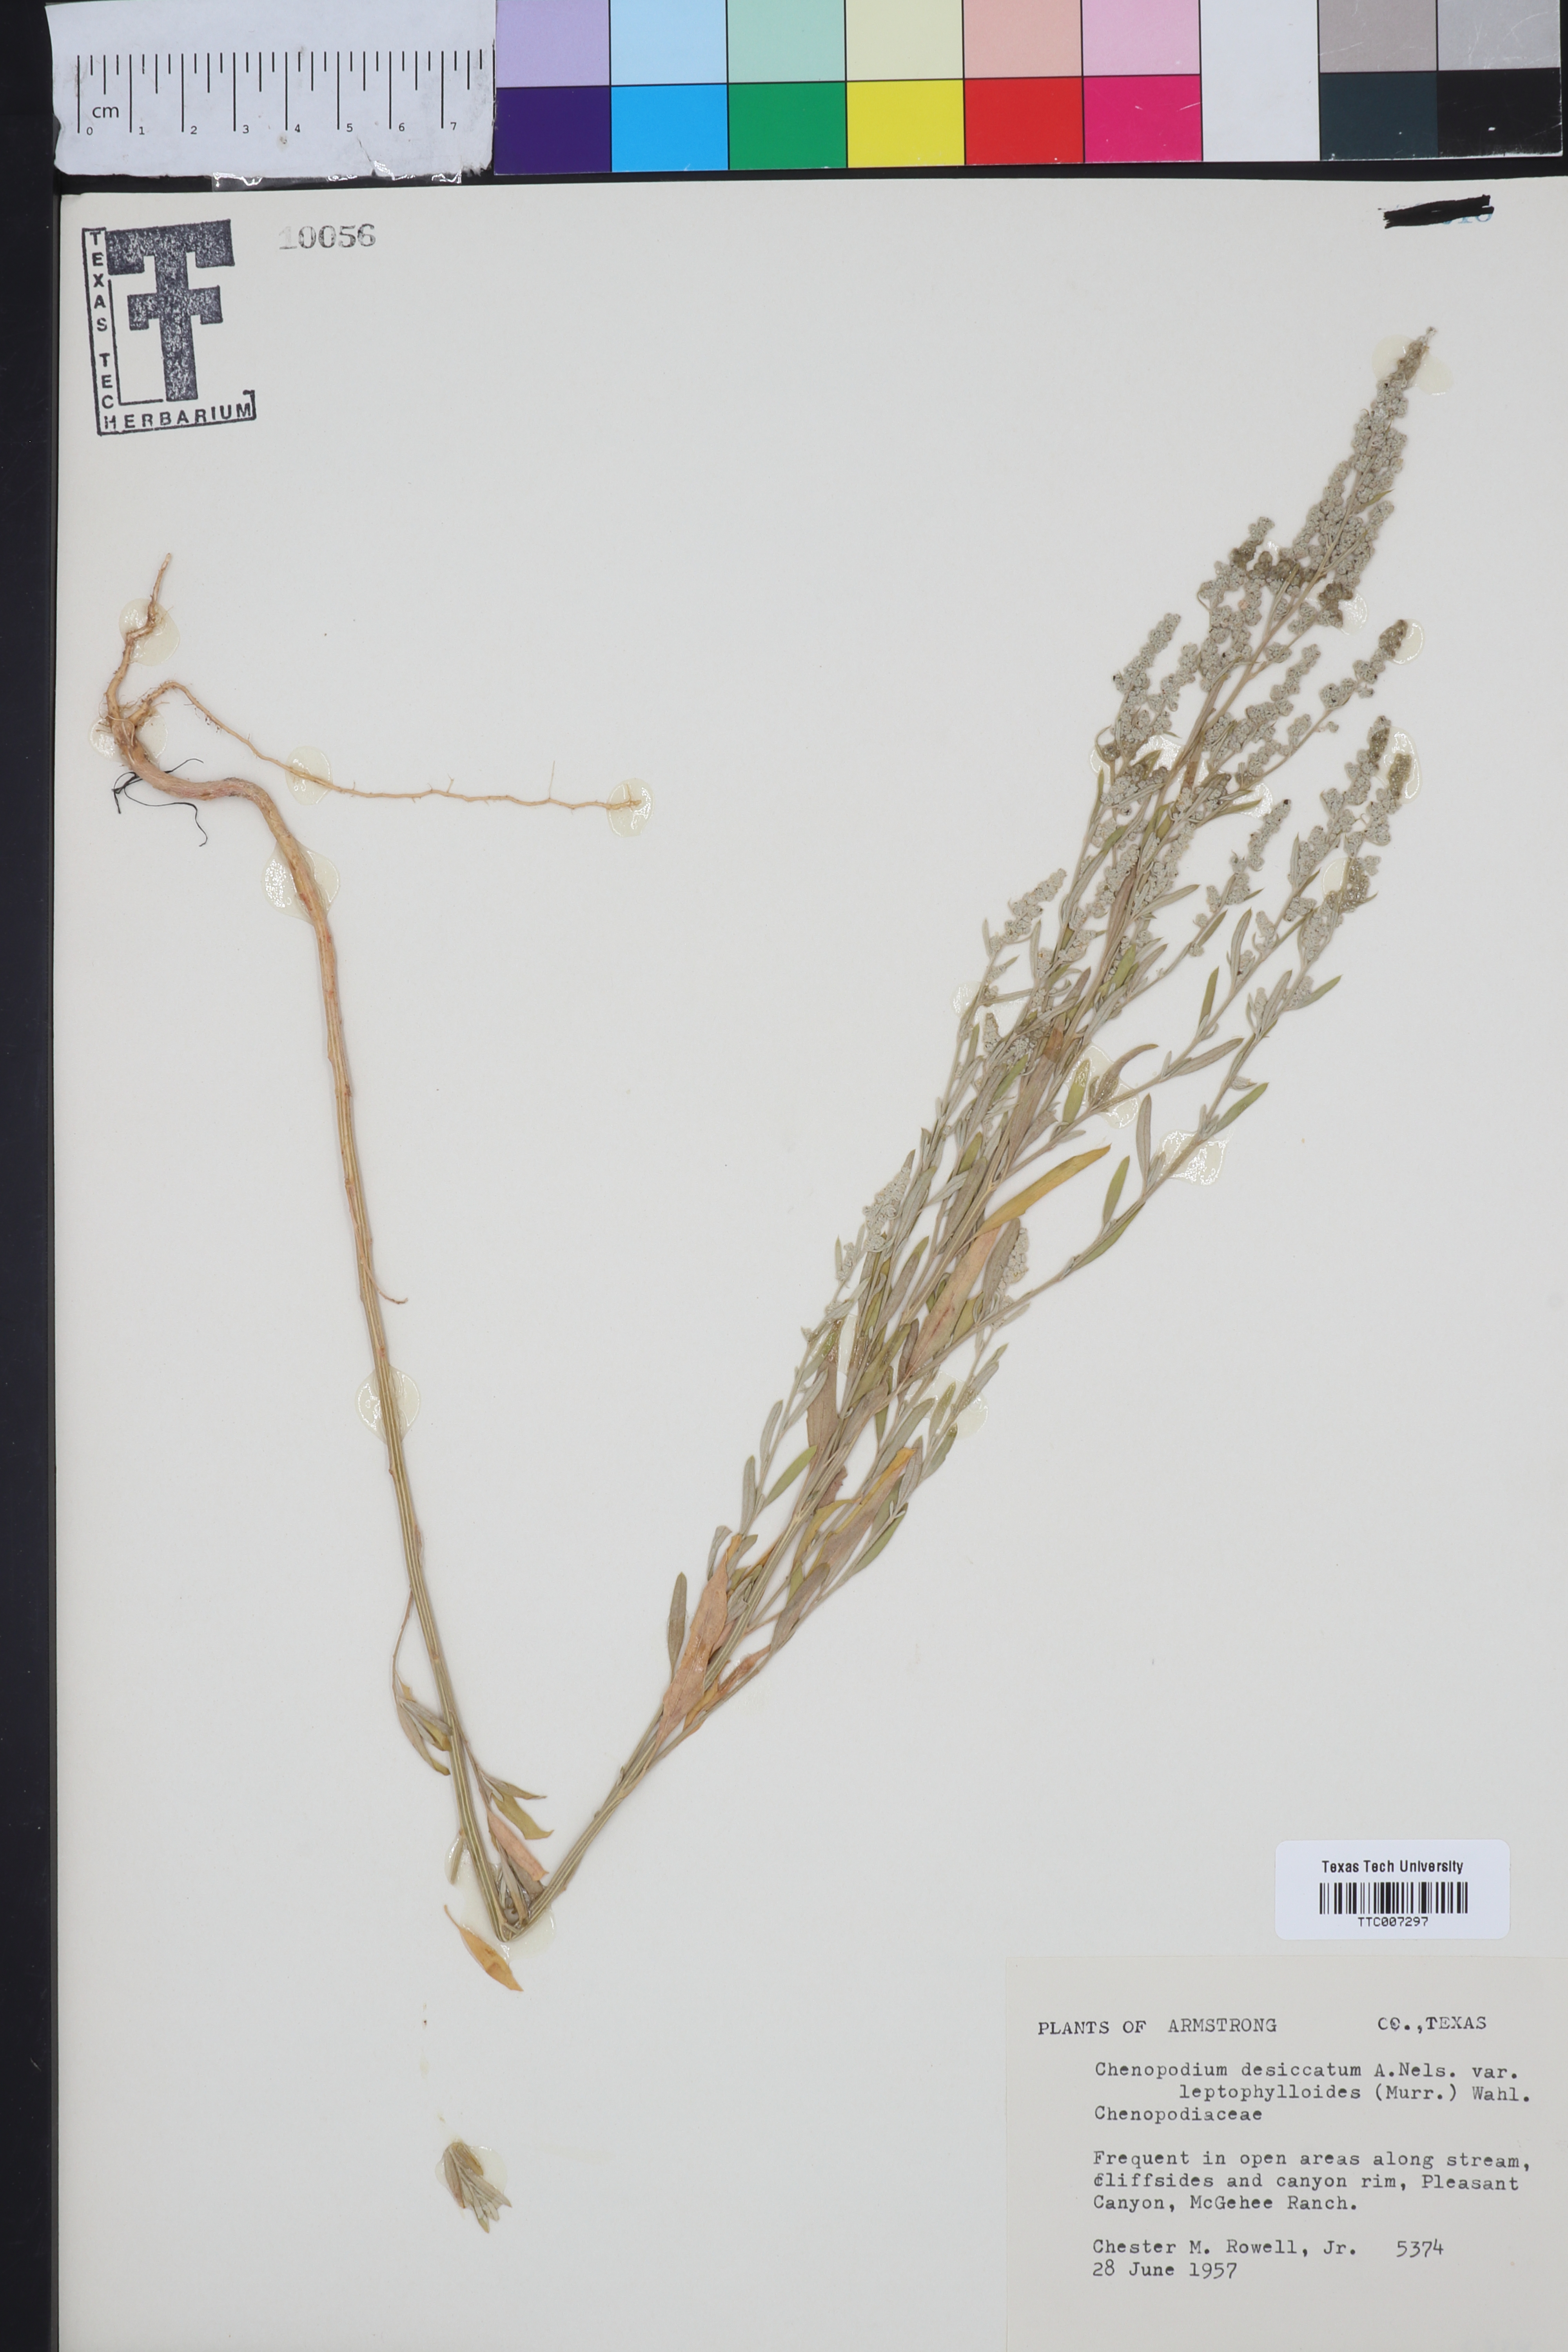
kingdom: Plantae
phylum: Tracheophyta
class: Magnoliopsida
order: Caryophyllales
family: Amaranthaceae
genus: Chenopodium
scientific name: Chenopodium pratericola
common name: Desert goosefoot
